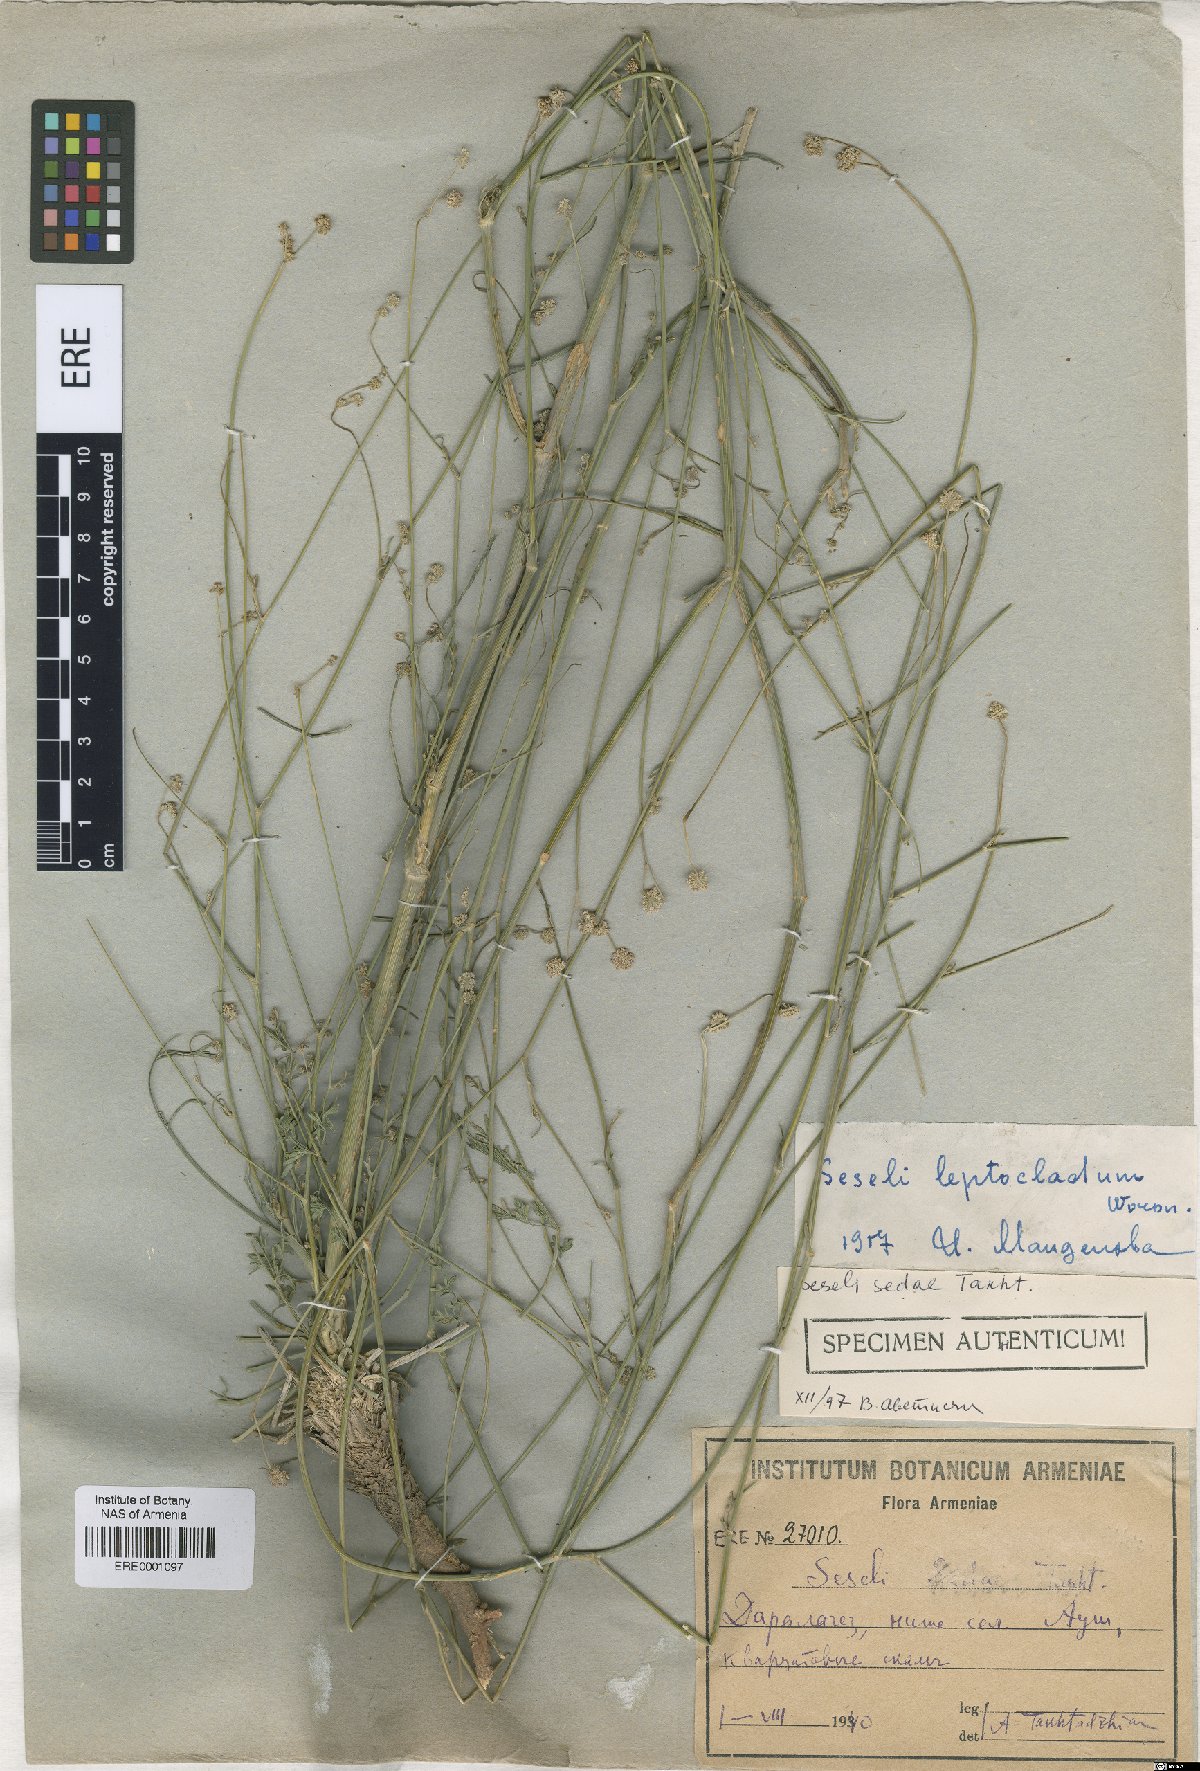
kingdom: Plantae
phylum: Tracheophyta
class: Magnoliopsida
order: Apiales
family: Apiaceae
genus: Seseli
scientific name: Seseli leptocladum
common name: Finely twiggy seseli
